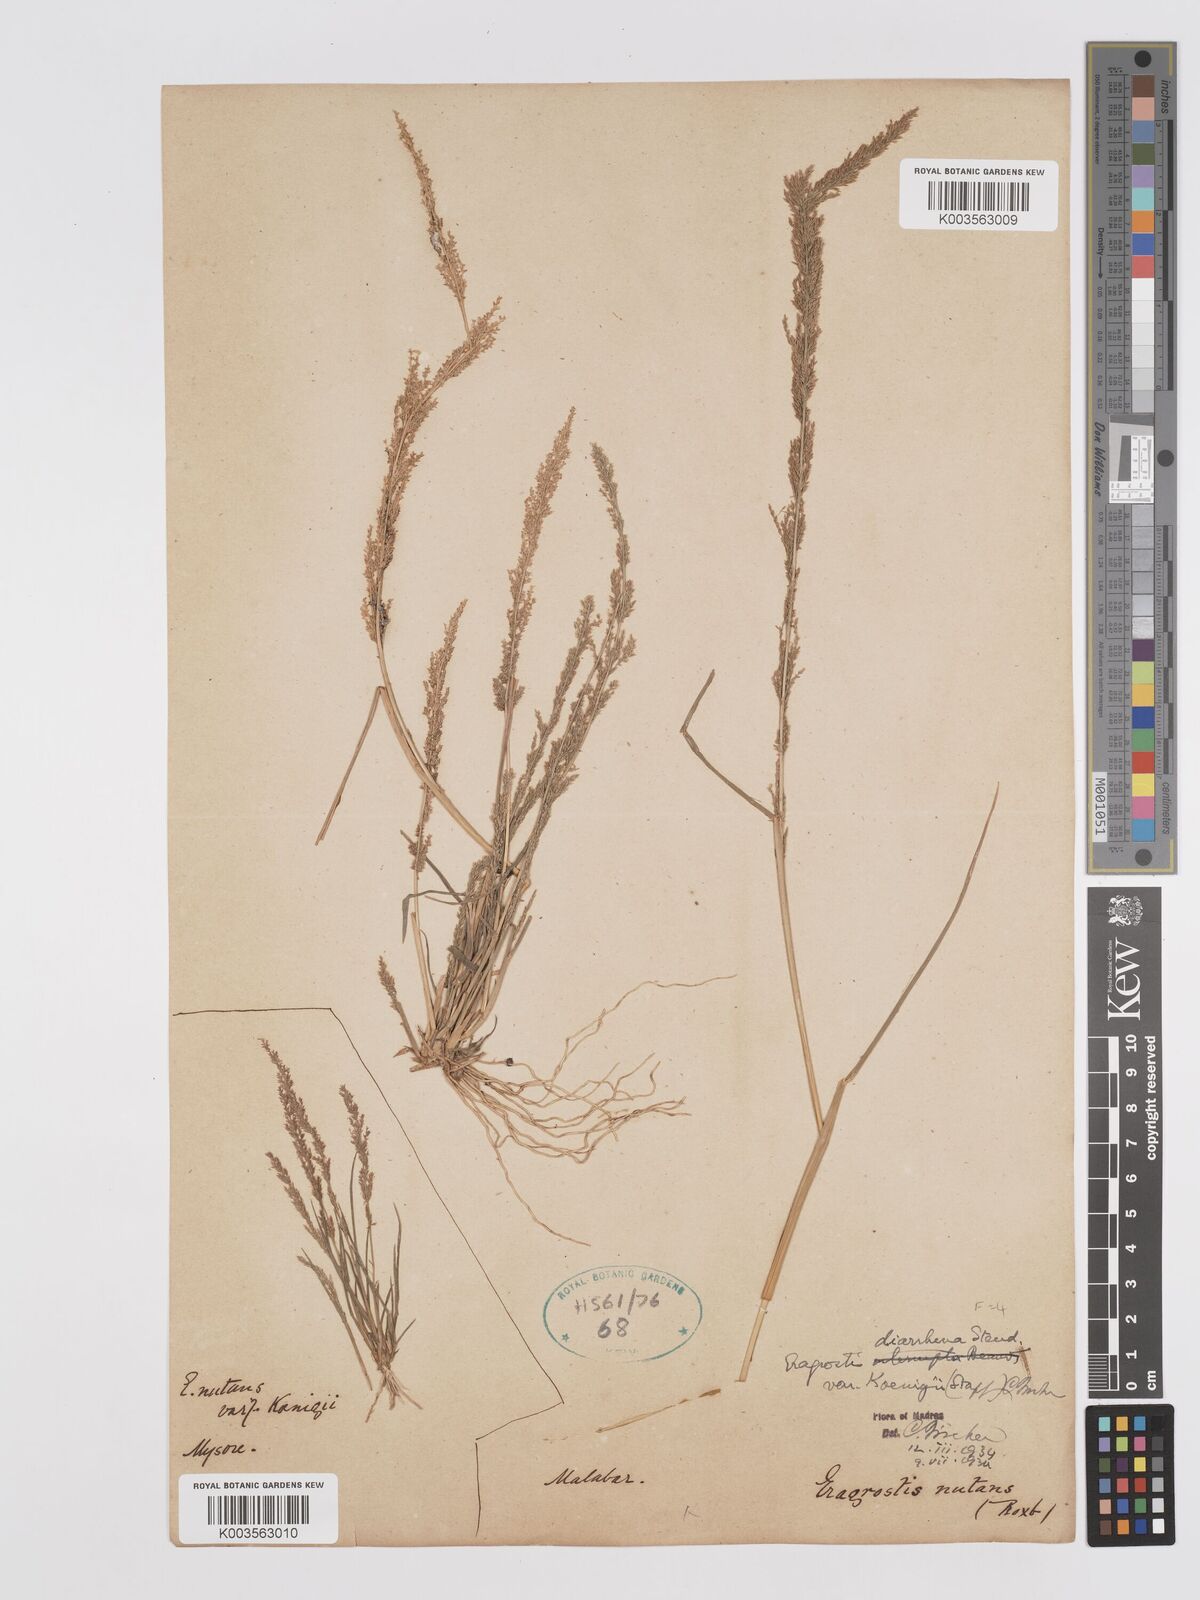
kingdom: Plantae
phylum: Tracheophyta
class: Liliopsida
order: Poales
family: Poaceae
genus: Eragrostis
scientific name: Eragrostis japonica
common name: Pond lovegrass
